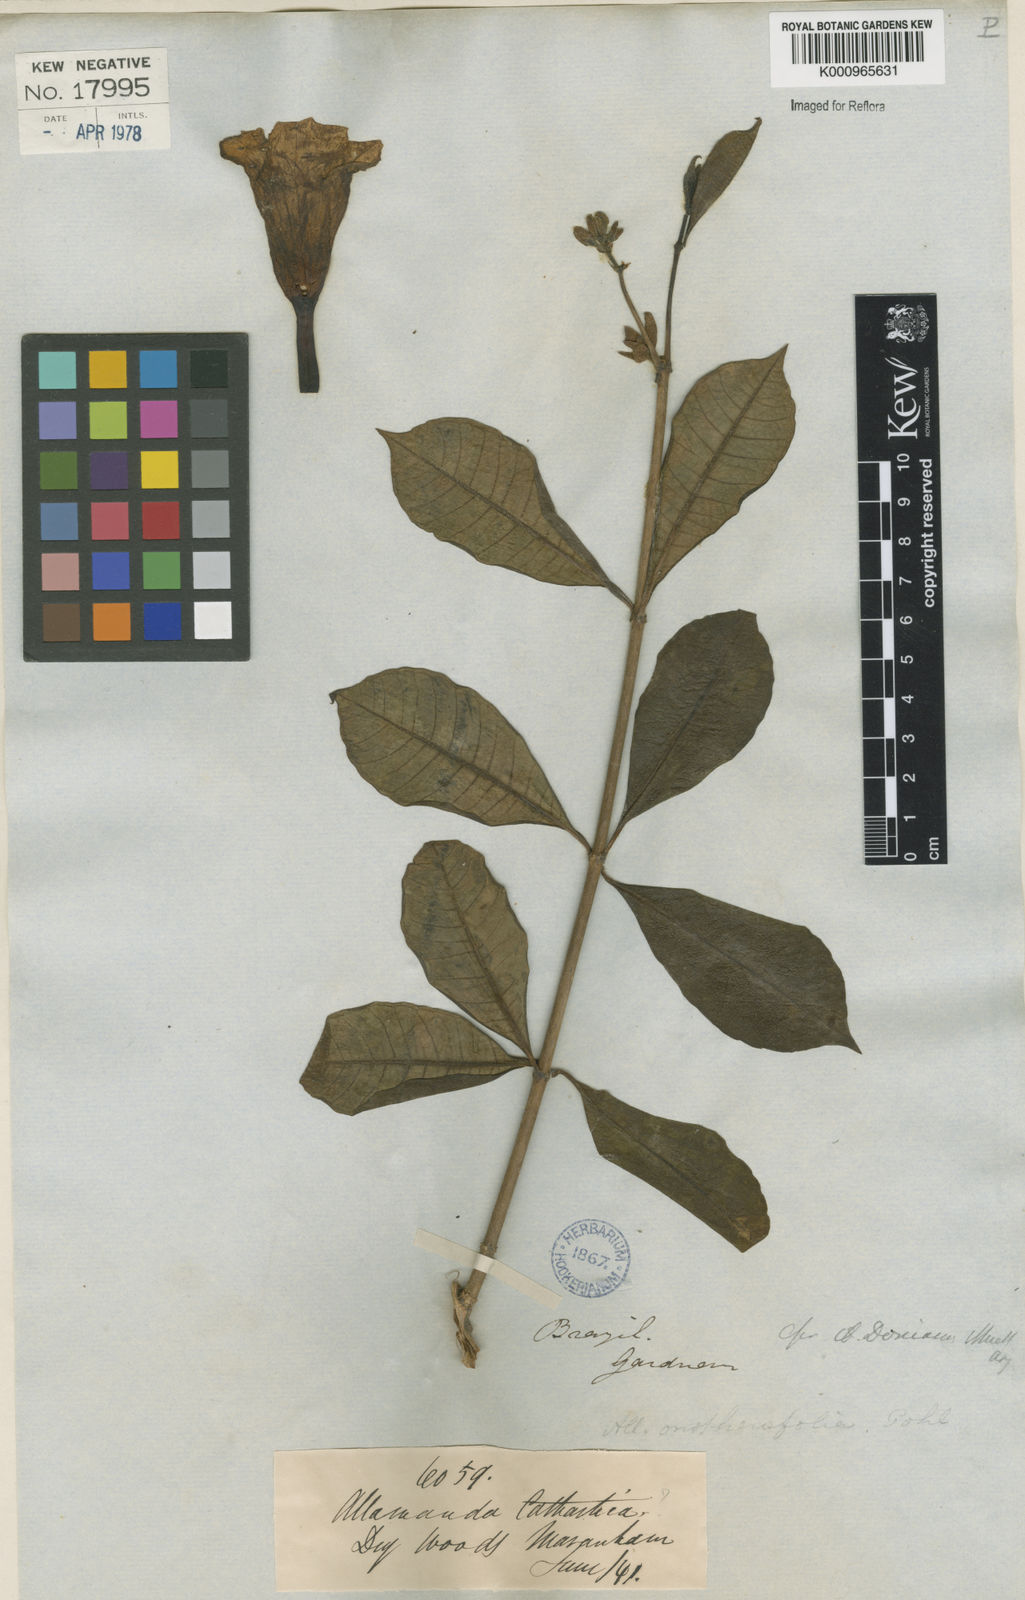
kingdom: Plantae
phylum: Tracheophyta
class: Magnoliopsida
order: Gentianales
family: Apocynaceae
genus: Allamanda
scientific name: Allamanda cathartica
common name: Golden trumpet
